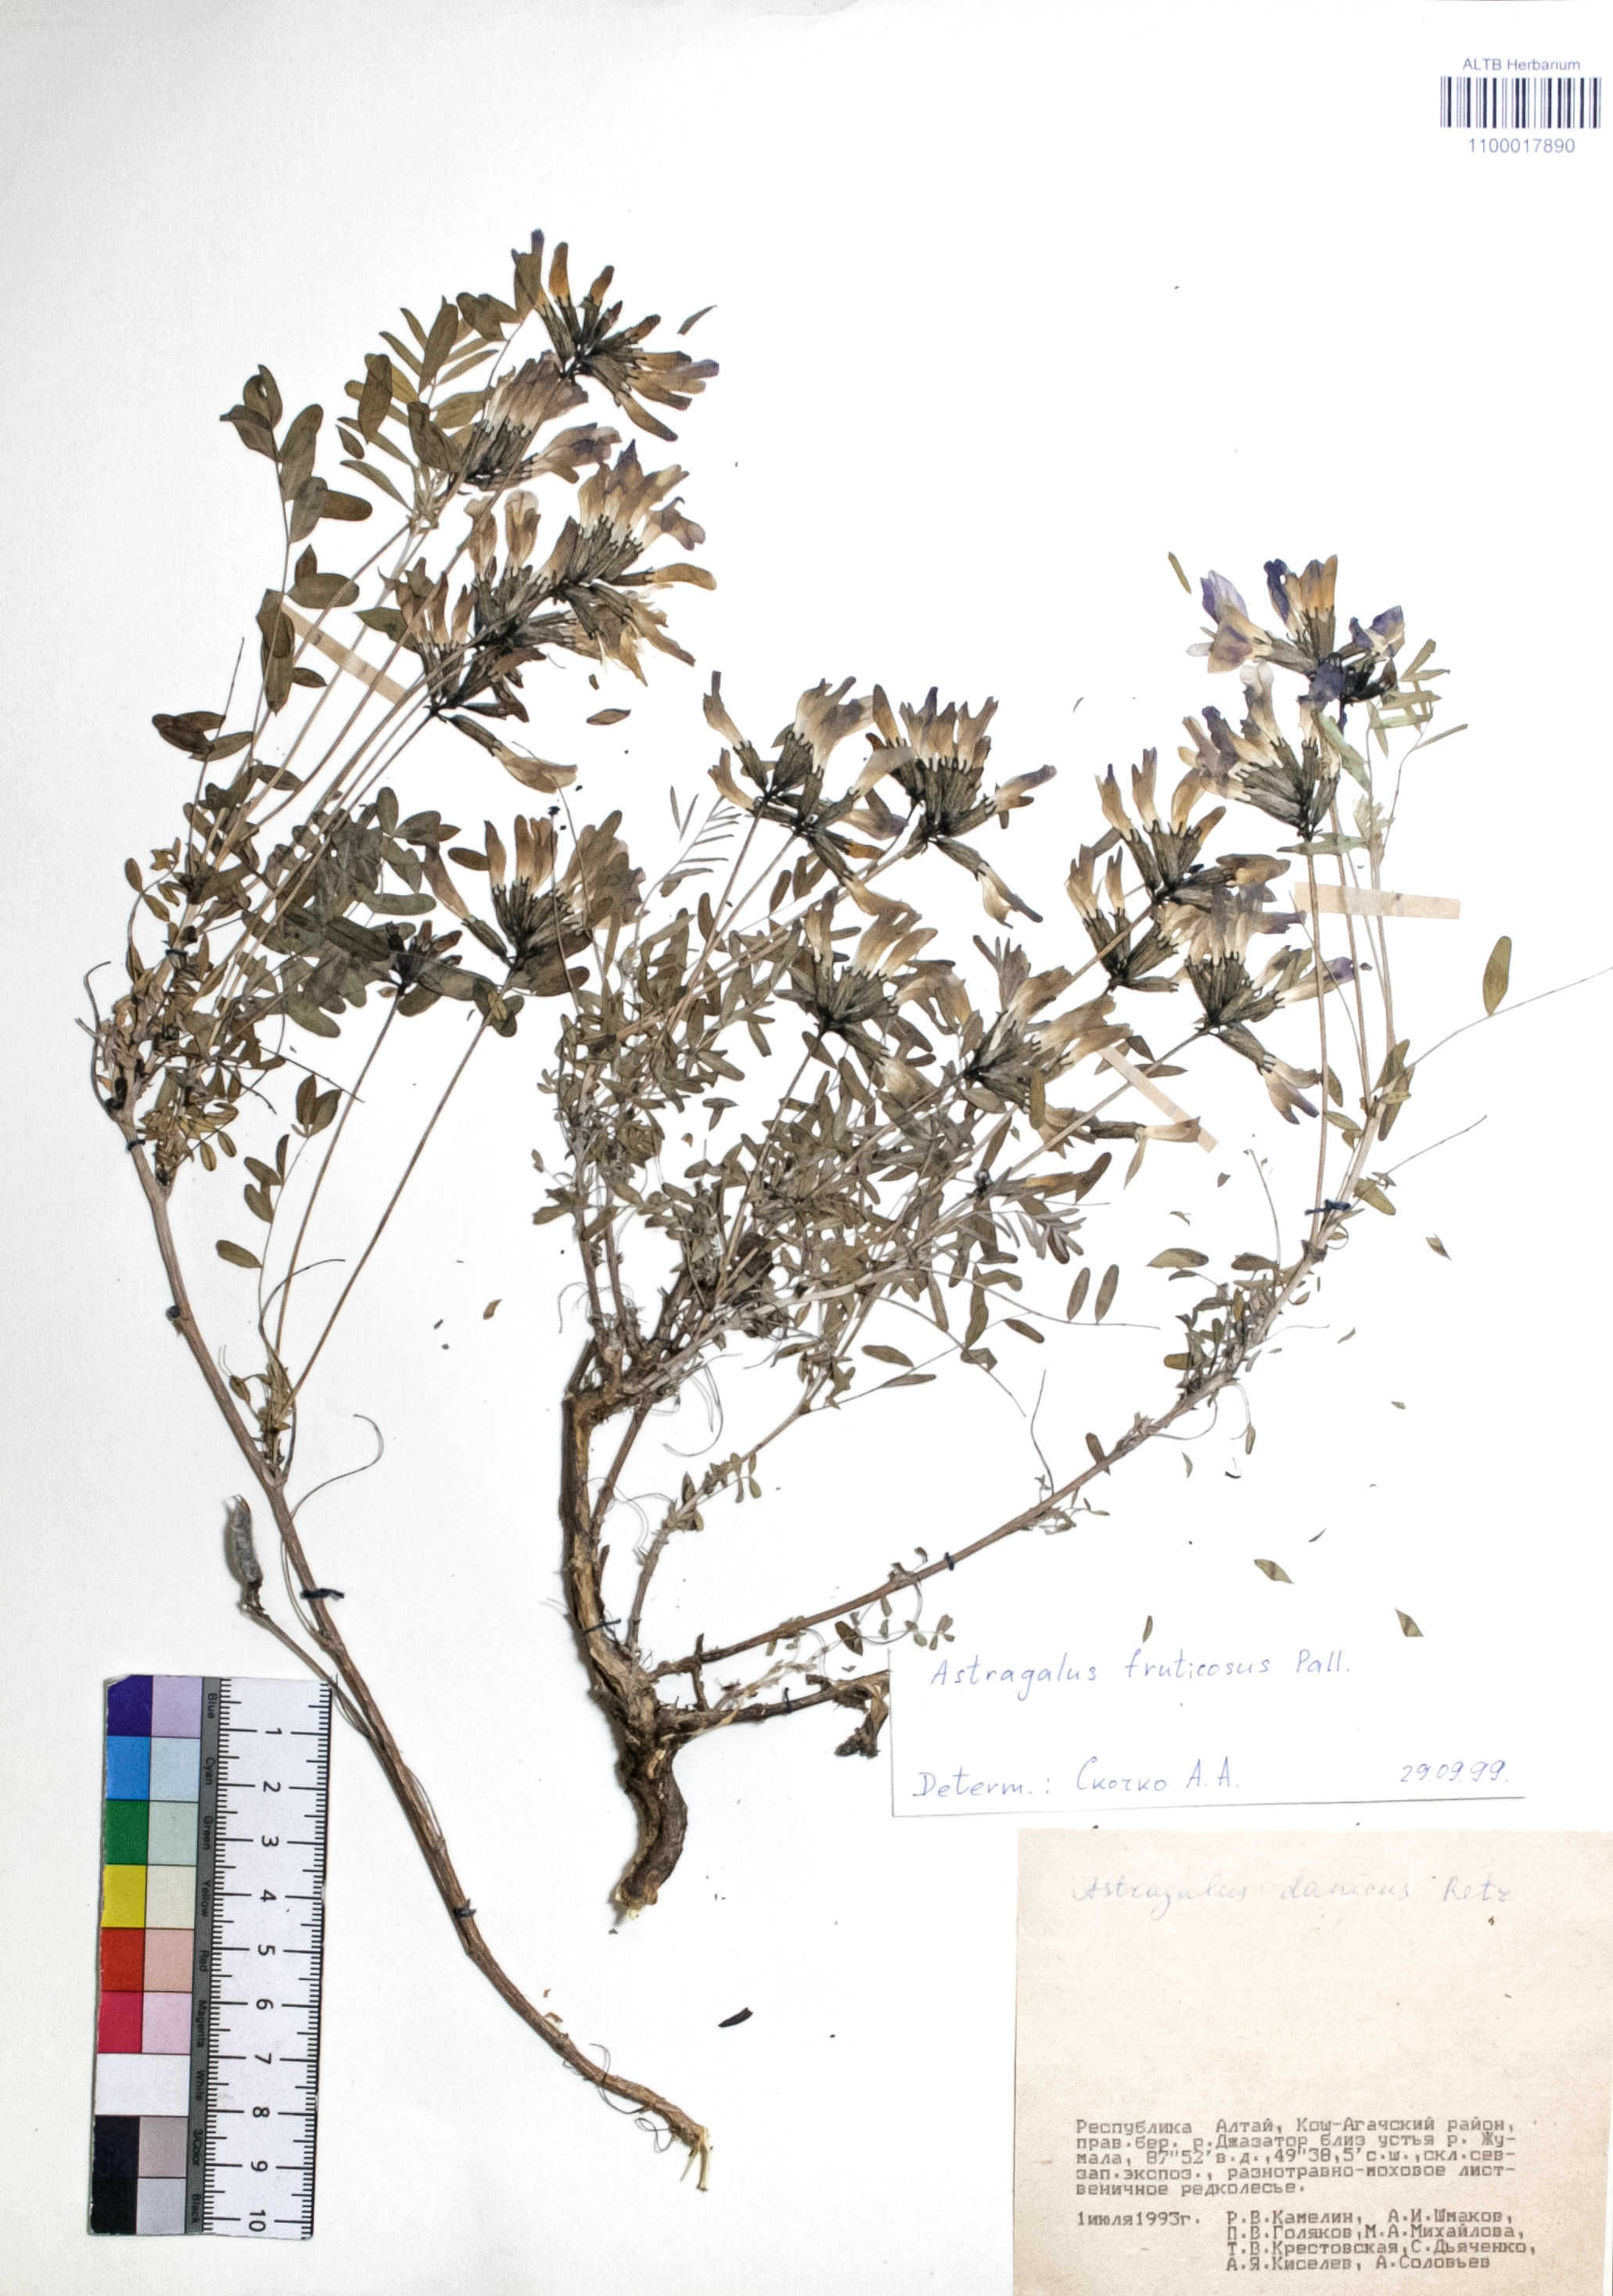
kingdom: Plantae
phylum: Tracheophyta
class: Magnoliopsida
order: Fabales
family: Fabaceae
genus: Astragalus
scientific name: Astragalus syriacus
